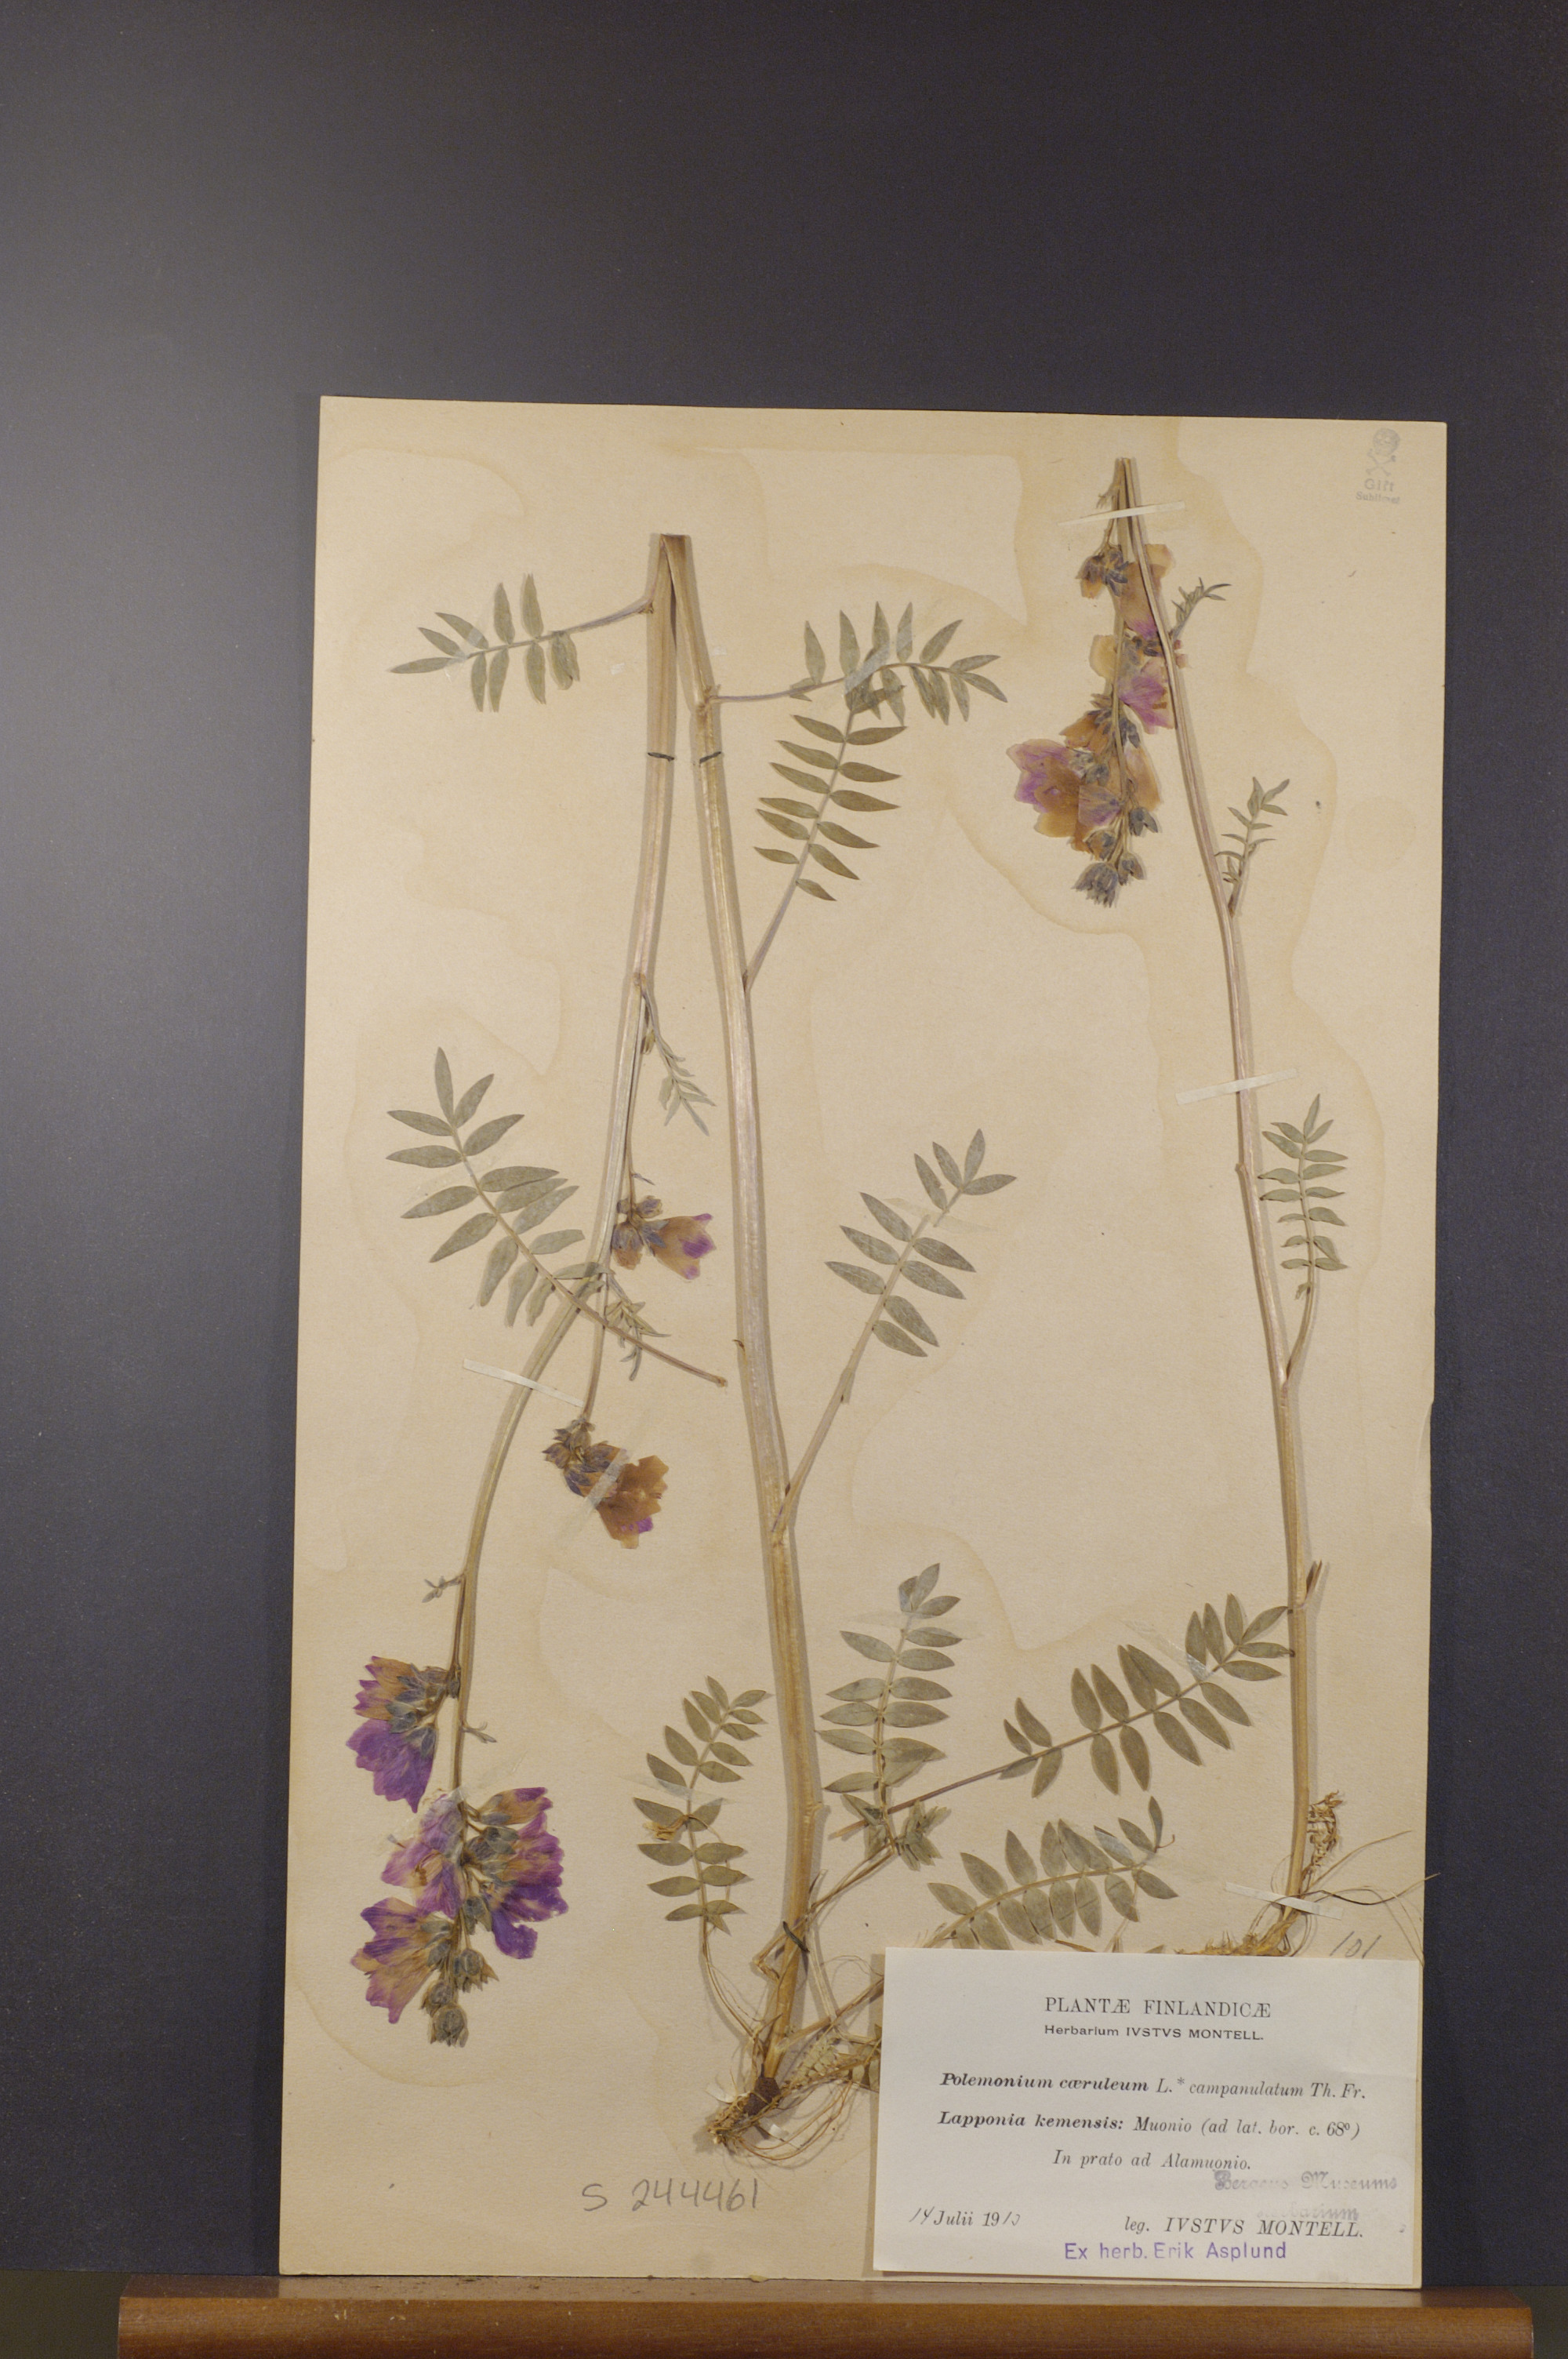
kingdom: Plantae
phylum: Tracheophyta
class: Magnoliopsida
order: Ericales
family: Polemoniaceae
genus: Polemonium
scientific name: Polemonium villosum
